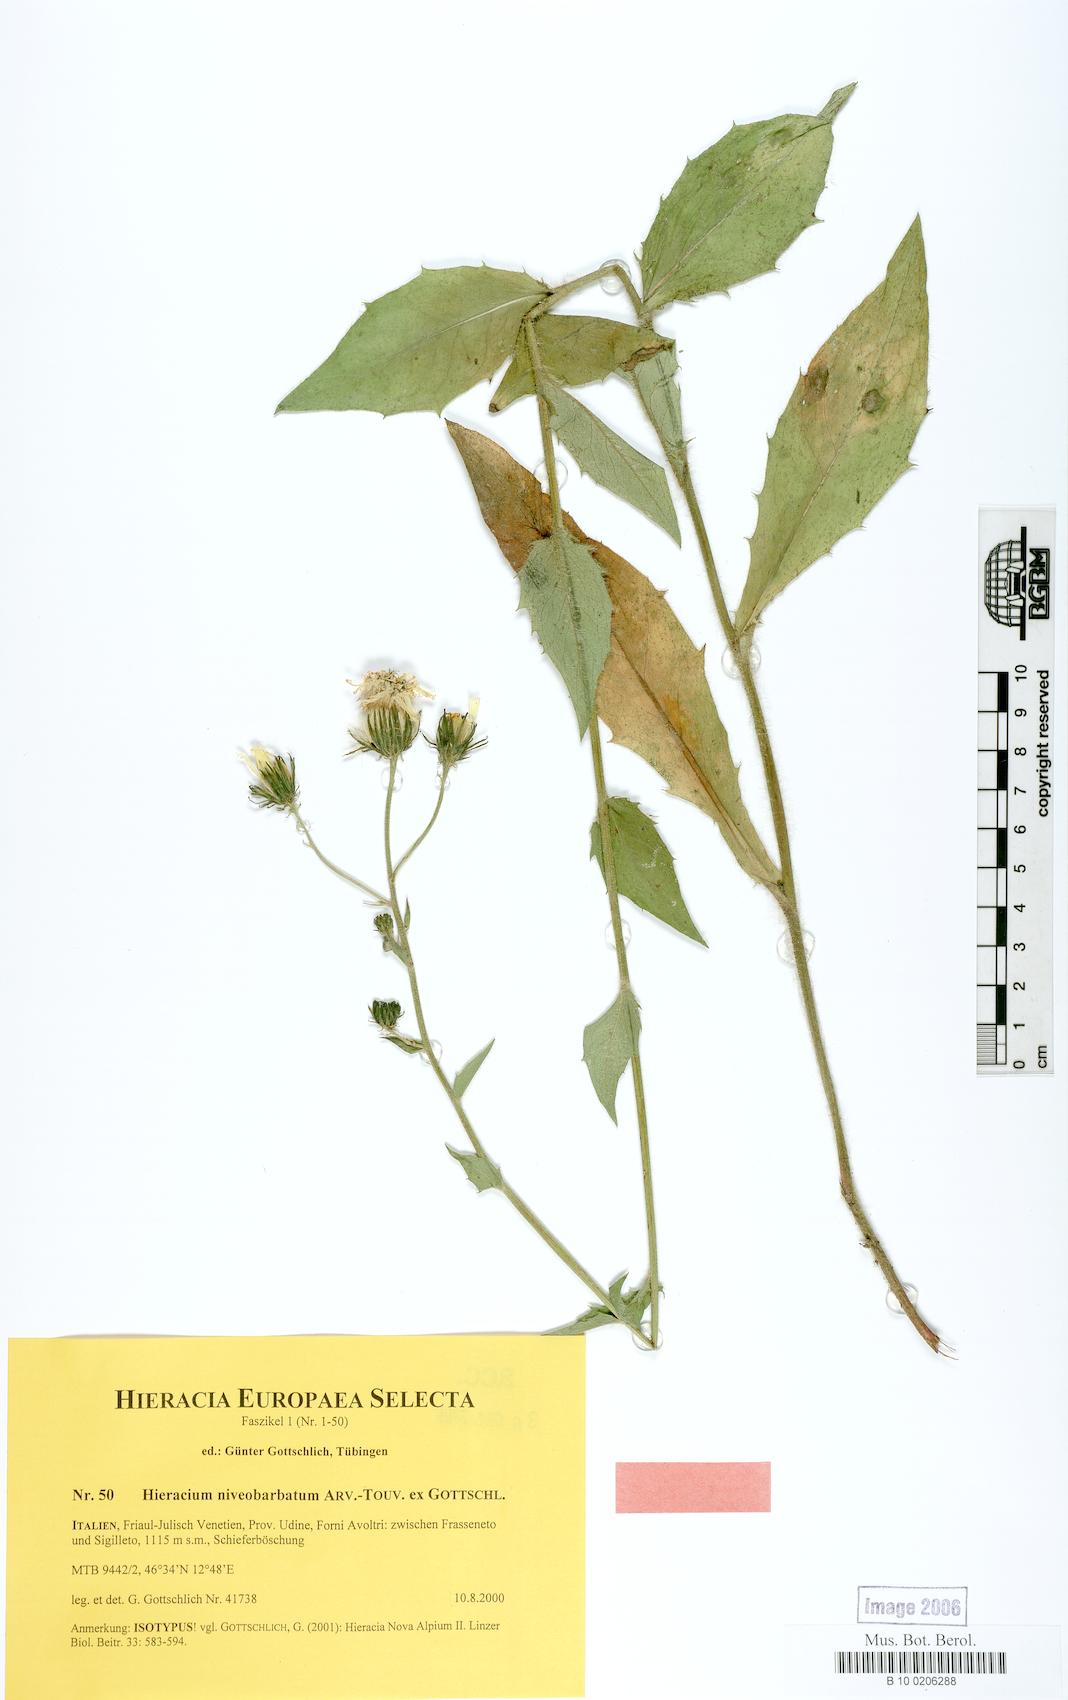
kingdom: Plantae
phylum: Tracheophyta
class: Magnoliopsida
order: Asterales
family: Asteraceae
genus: Hieracium
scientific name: Hieracium niveobarbatum
